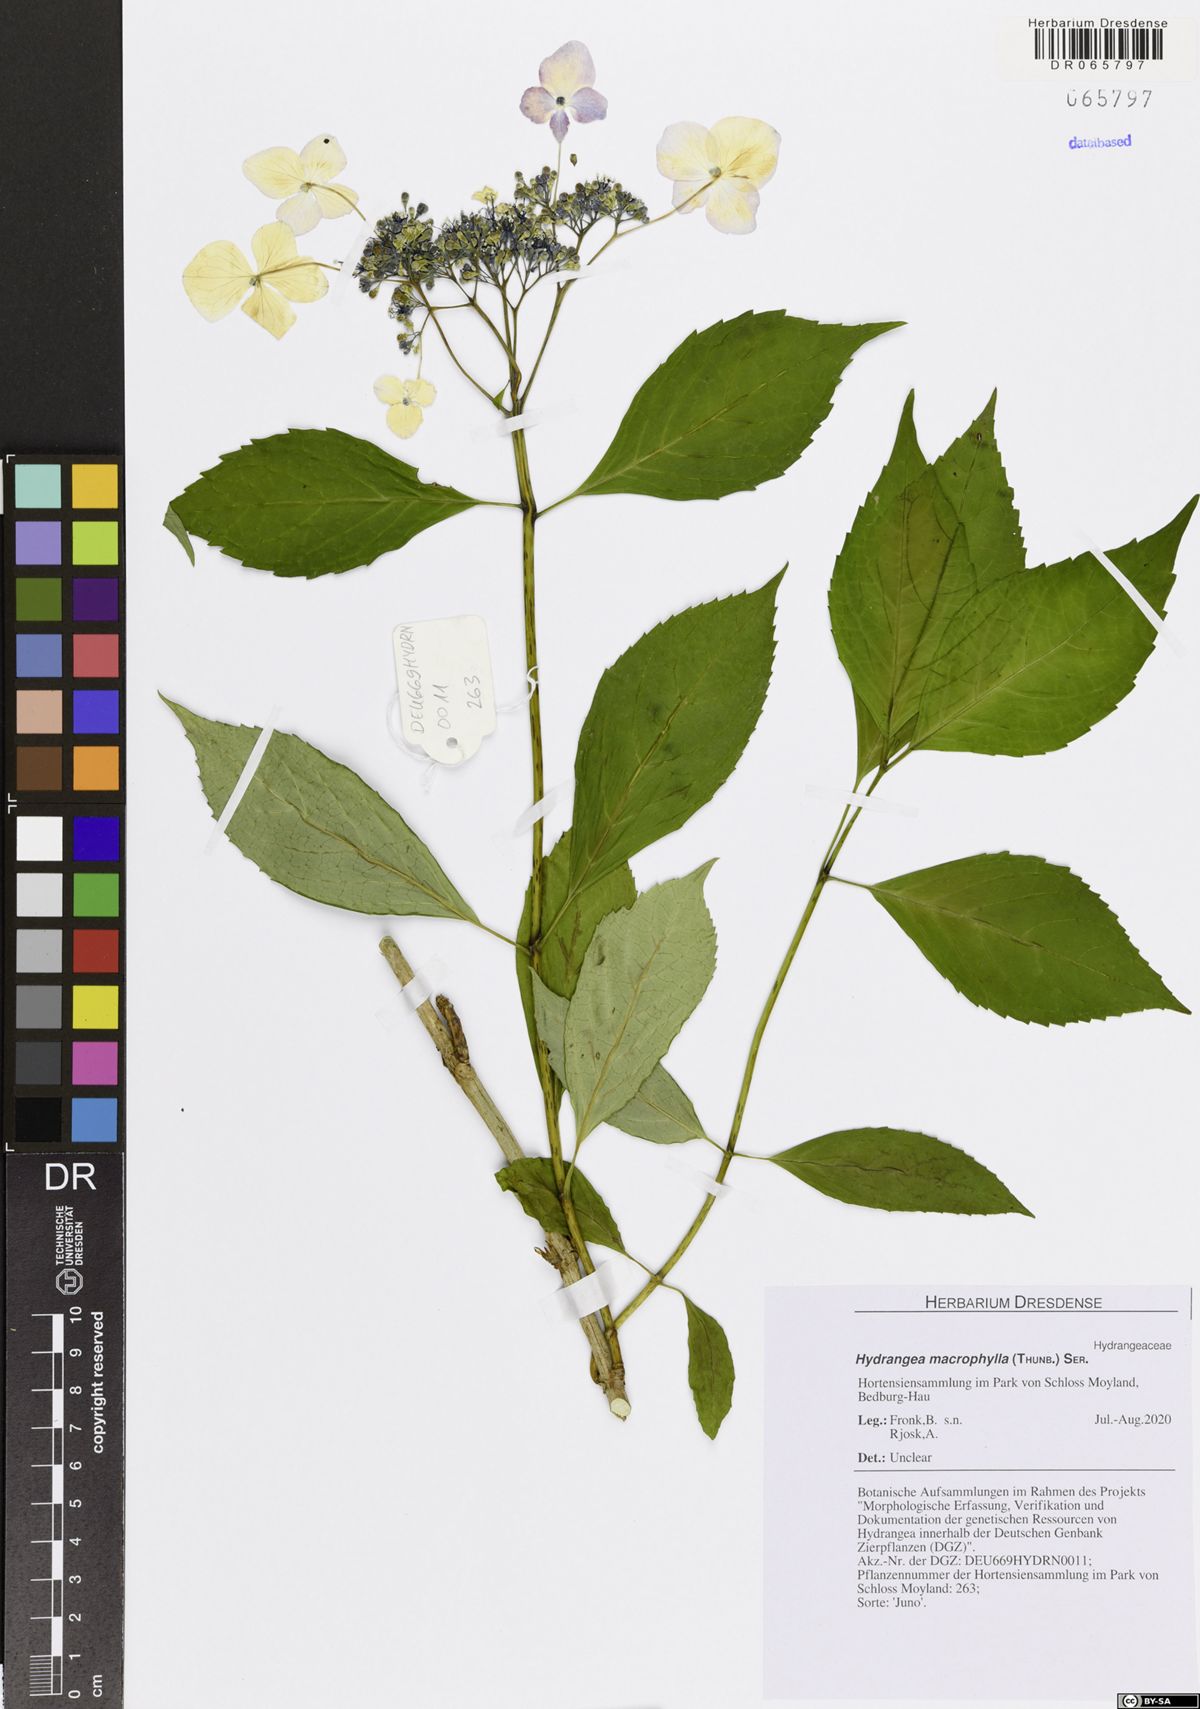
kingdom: Plantae
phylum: Tracheophyta
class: Magnoliopsida
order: Cornales
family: Hydrangeaceae
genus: Hydrangea
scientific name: Hydrangea macrophylla
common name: Hydrangea
